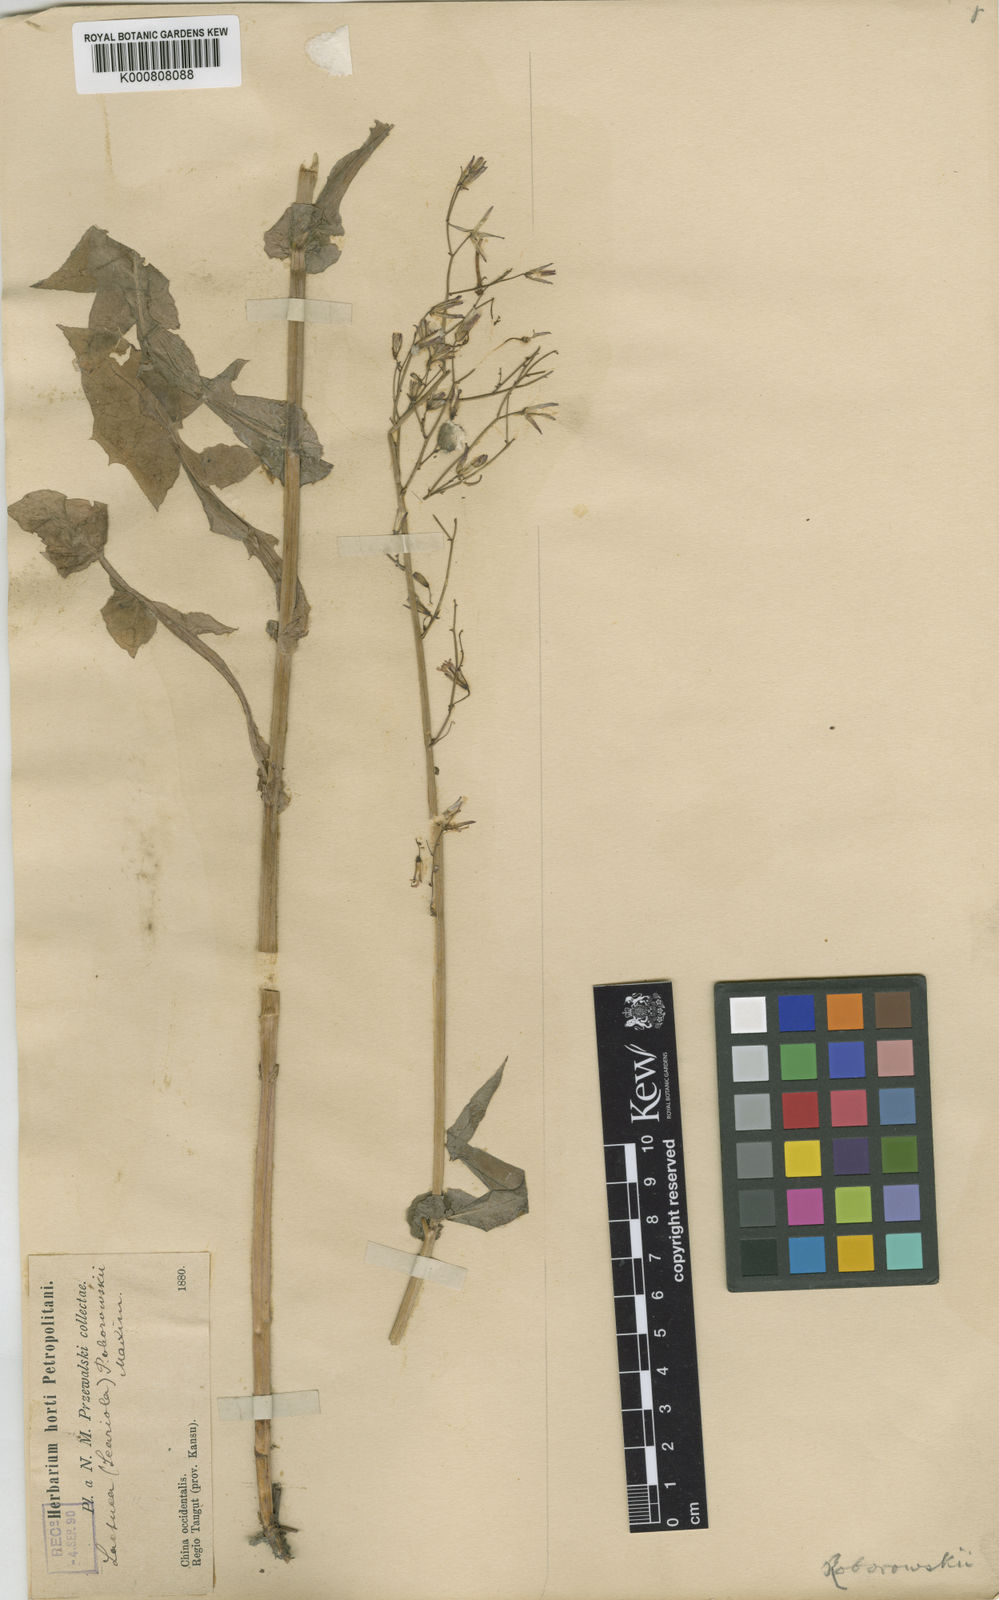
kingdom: Plantae
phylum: Tracheophyta
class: Magnoliopsida
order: Asterales
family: Asteraceae
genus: Cicerbita
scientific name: Cicerbita roborowskii
